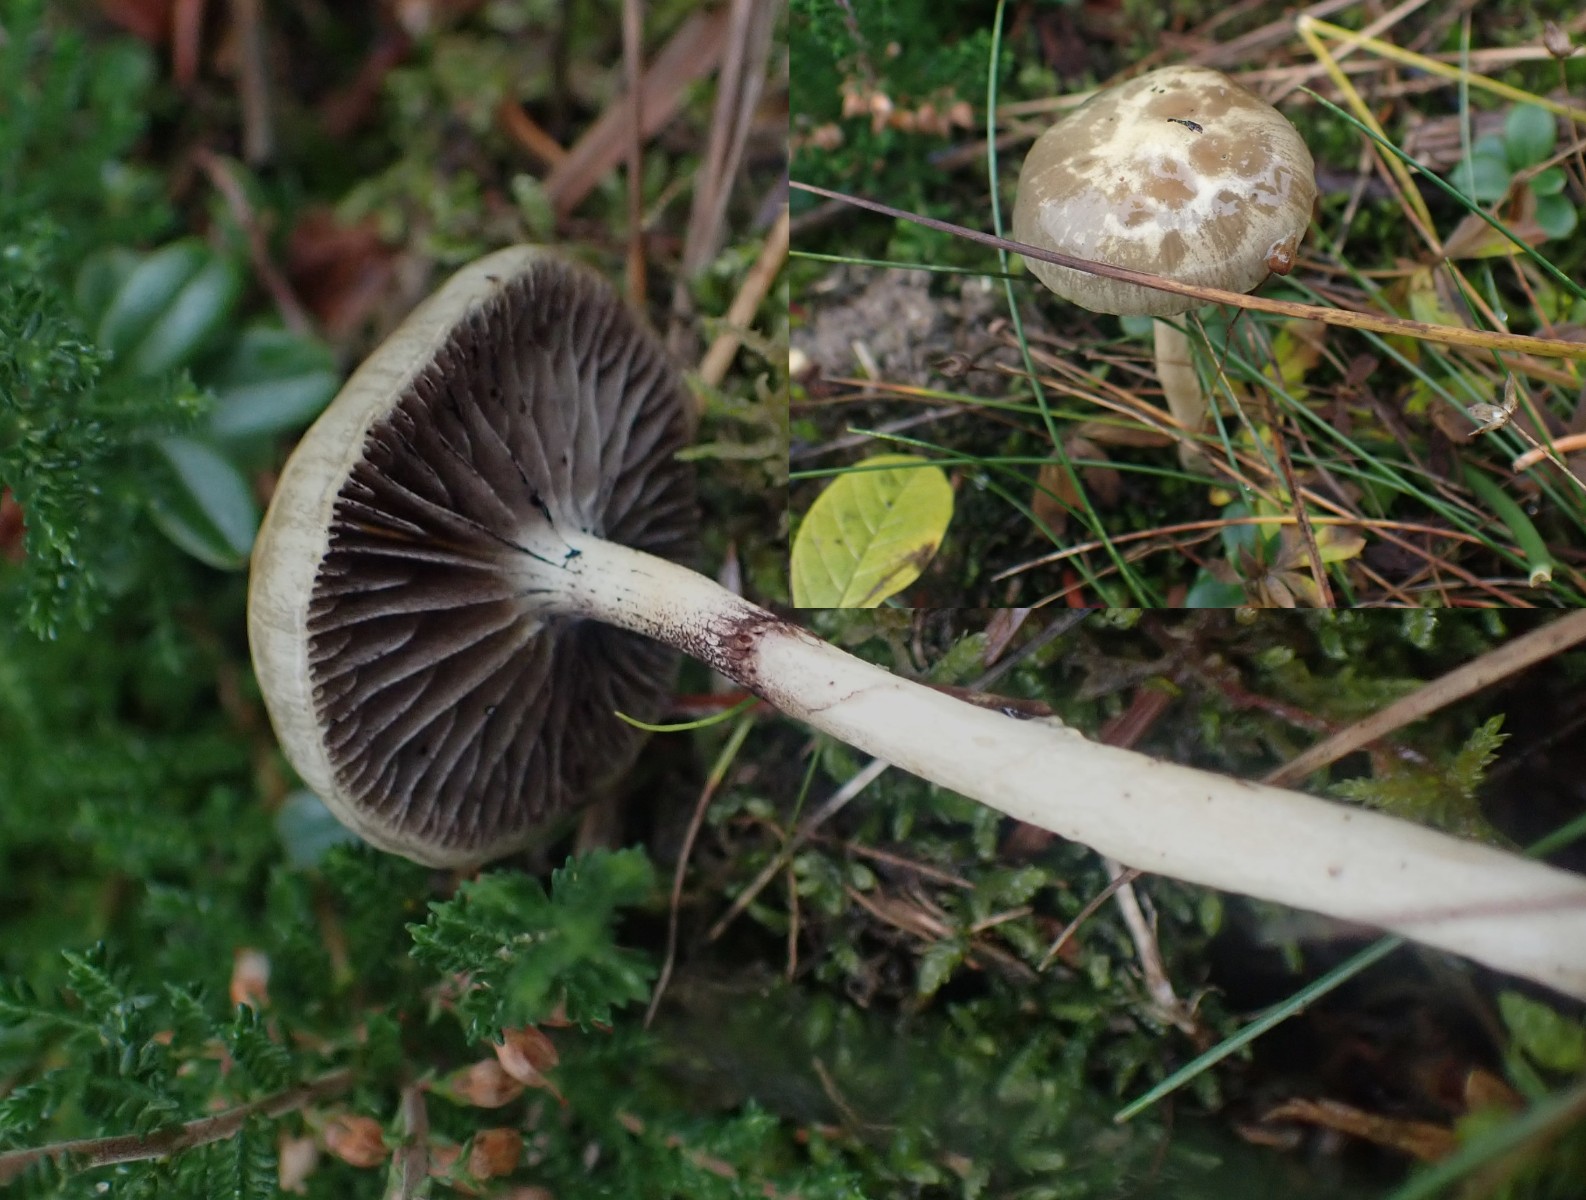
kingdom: Fungi
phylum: Basidiomycota
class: Agaricomycetes
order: Agaricales
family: Strophariaceae
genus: Protostropharia
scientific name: Protostropharia semiglobata
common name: halvkugleformet bredblad
